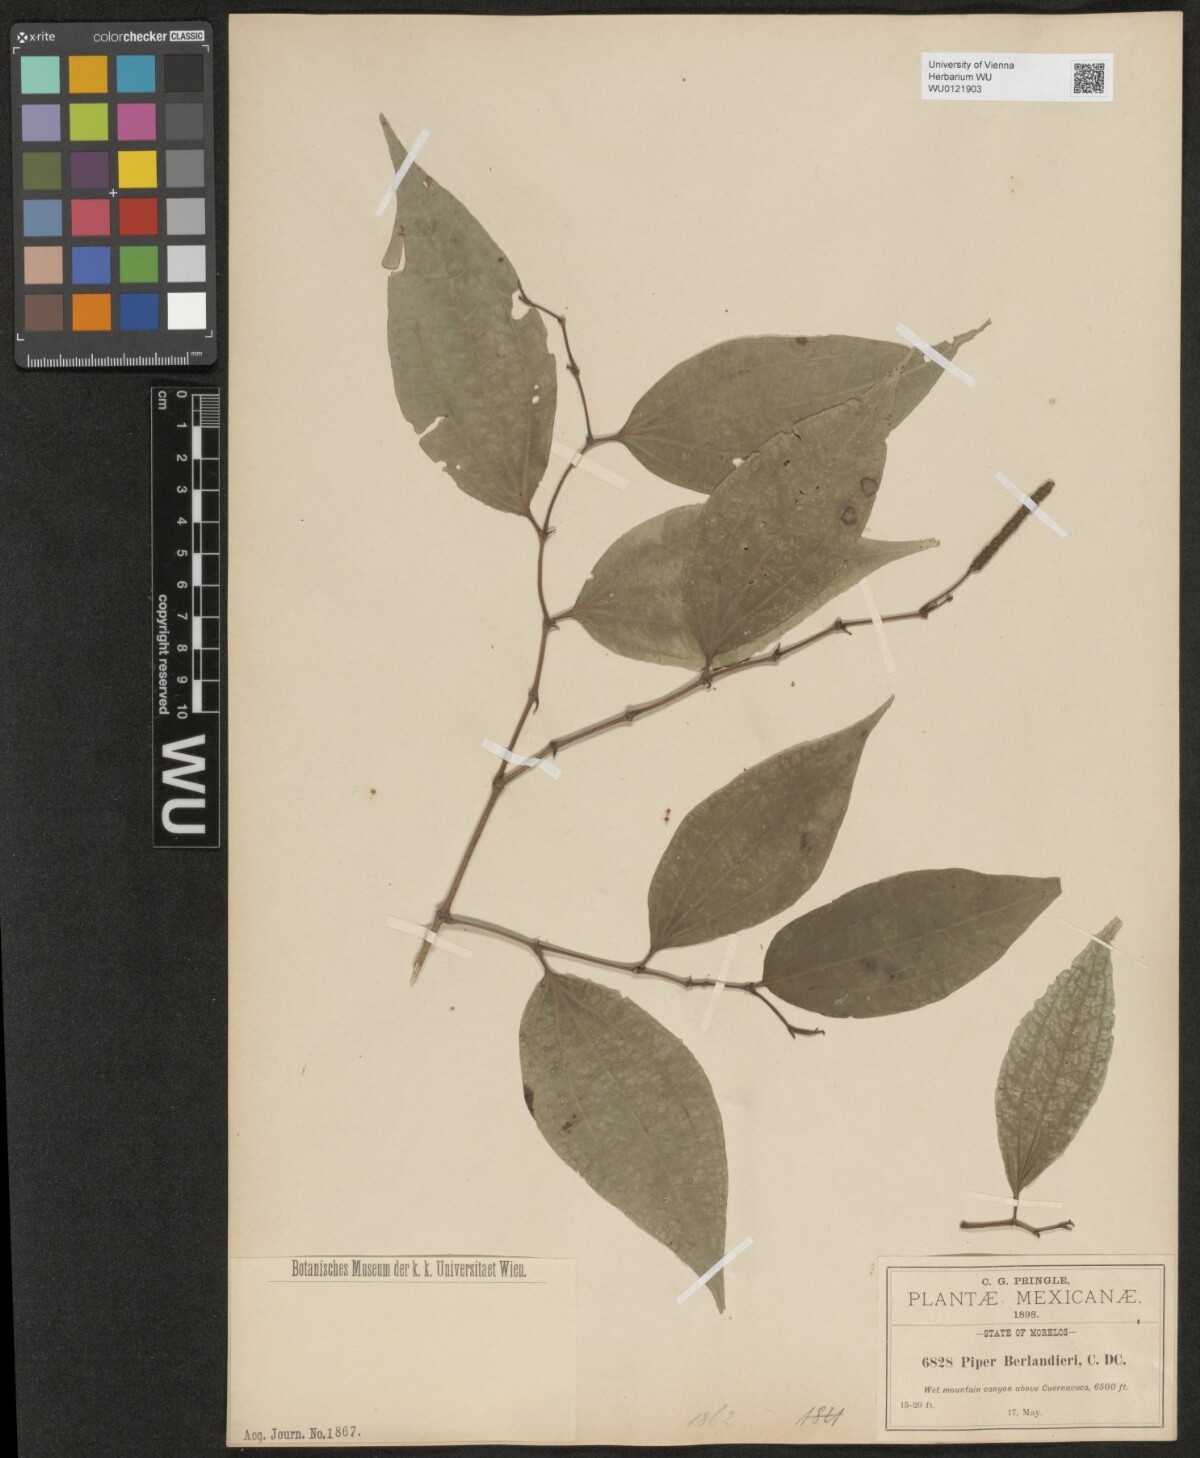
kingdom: Plantae
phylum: Tracheophyta
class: Magnoliopsida
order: Piperales
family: Piperaceae
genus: Piper
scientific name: Piper berlandieri
